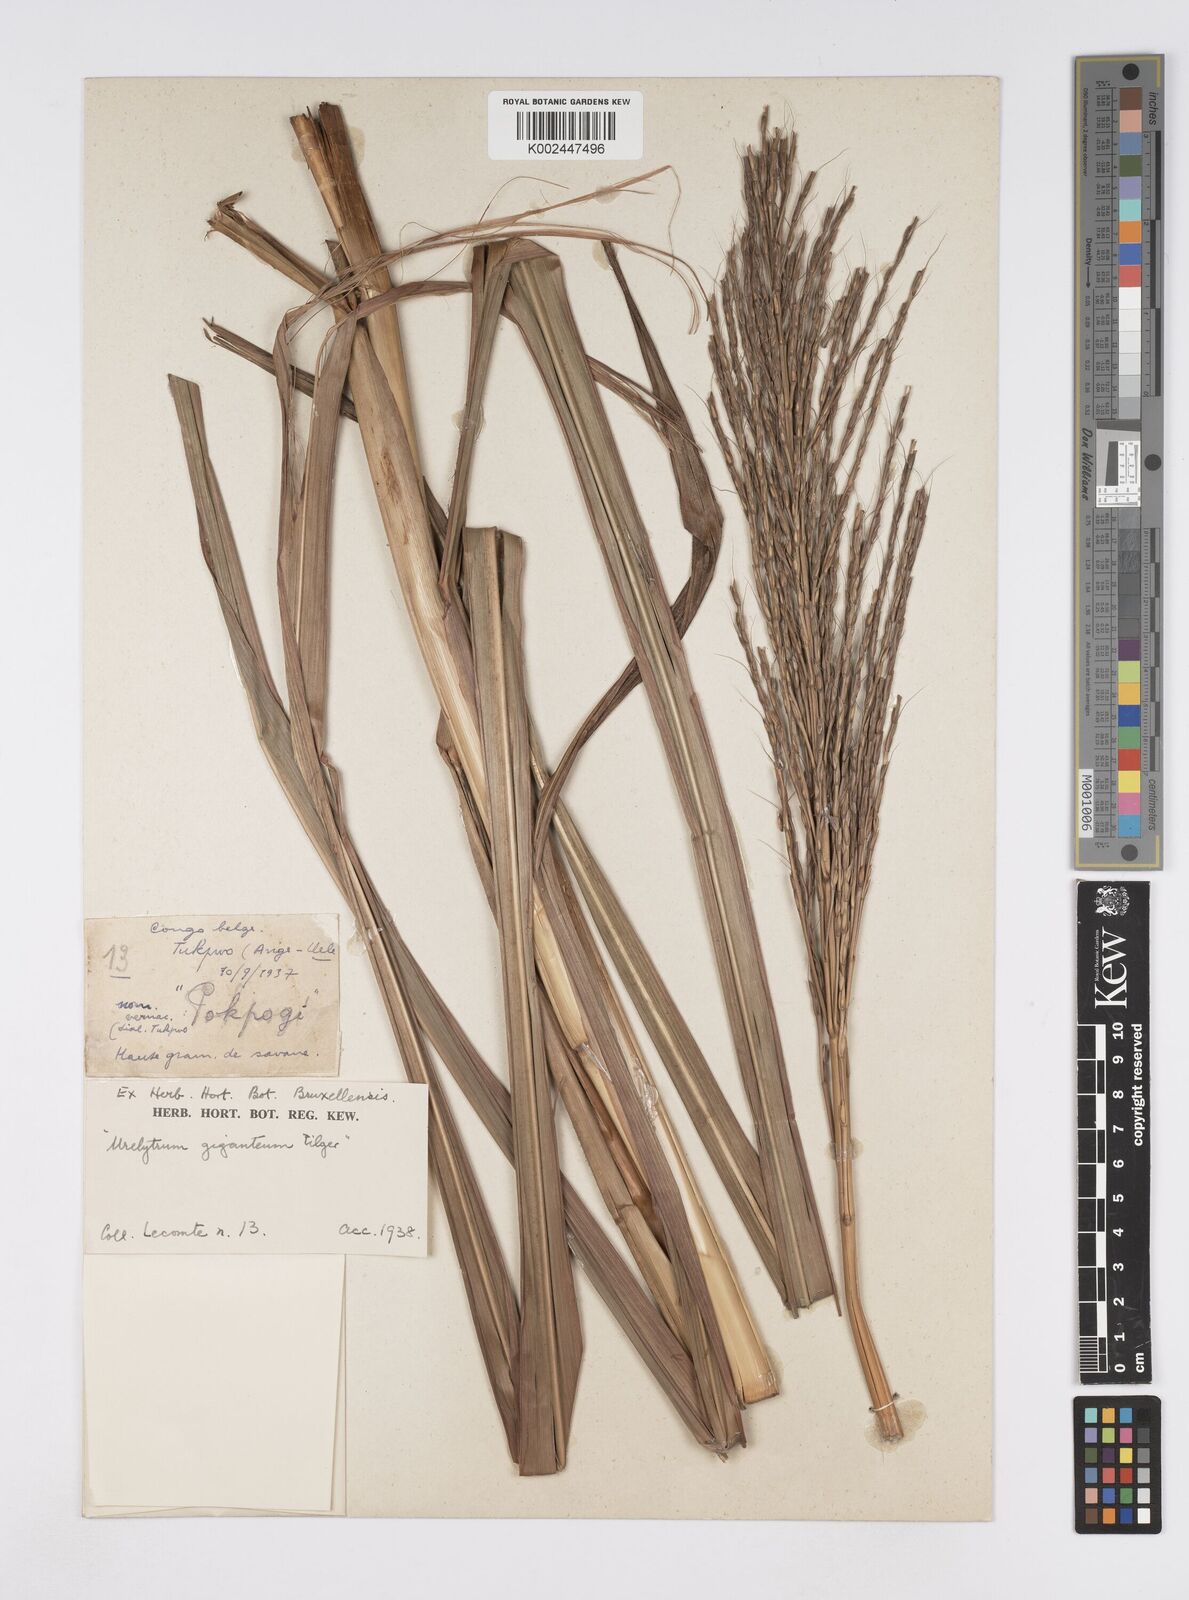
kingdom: Plantae
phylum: Tracheophyta
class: Liliopsida
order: Poales
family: Poaceae
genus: Urelytrum
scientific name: Urelytrum giganteum
